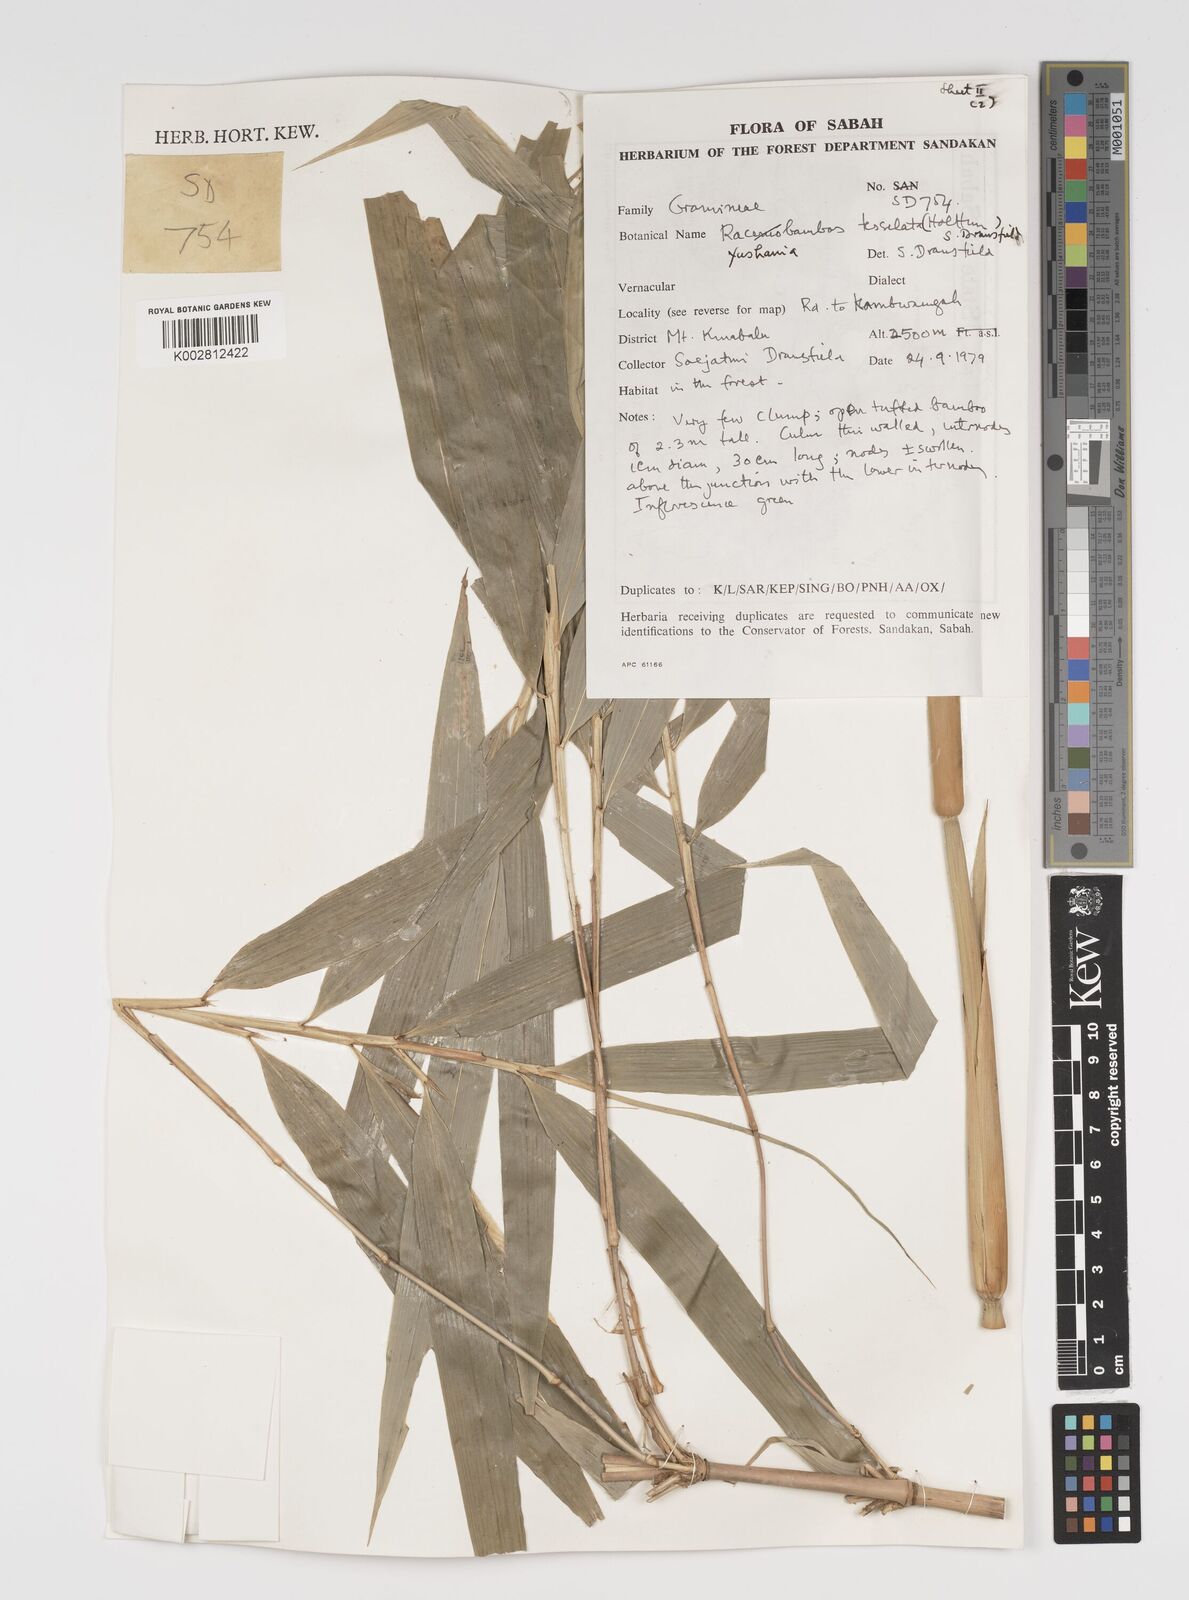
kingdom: Plantae
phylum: Tracheophyta
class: Liliopsida
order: Poales
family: Poaceae
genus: Yushania
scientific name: Yushania tessellata
